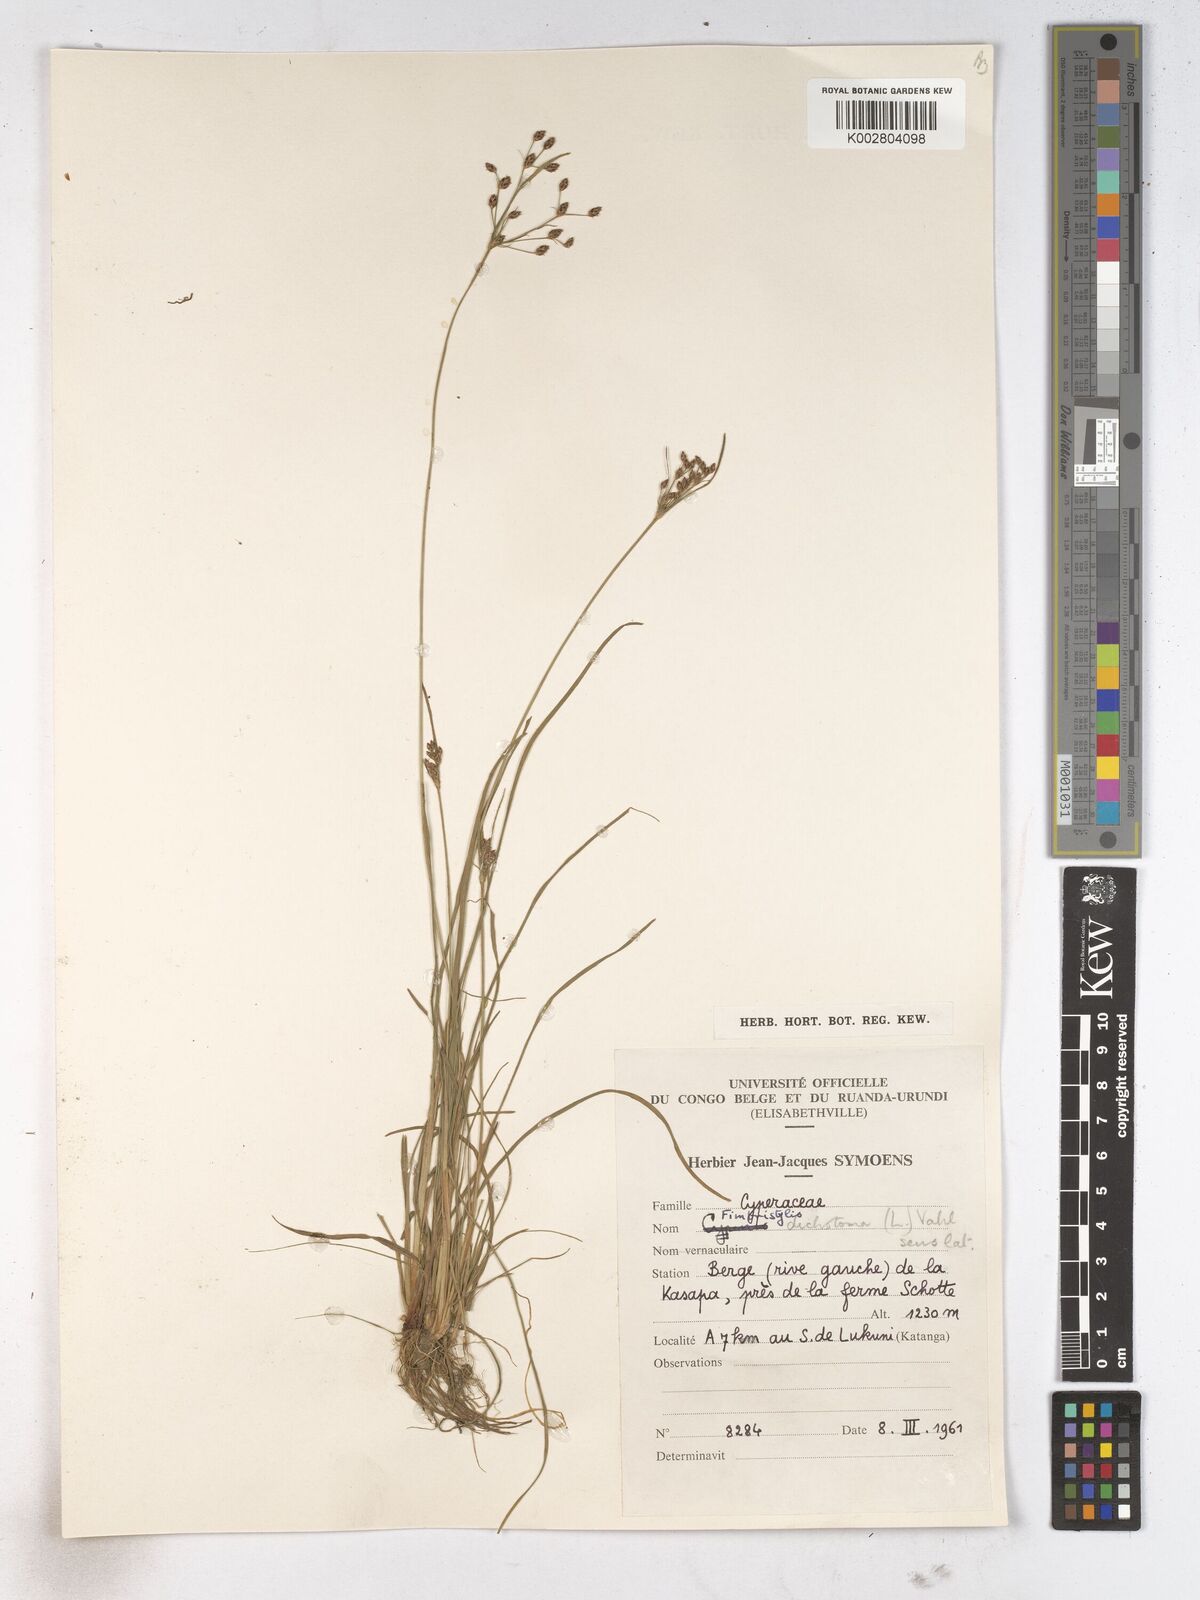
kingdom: Plantae
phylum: Tracheophyta
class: Liliopsida
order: Poales
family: Cyperaceae
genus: Fimbristylis
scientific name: Fimbristylis dichotoma
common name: Forked fimbry
